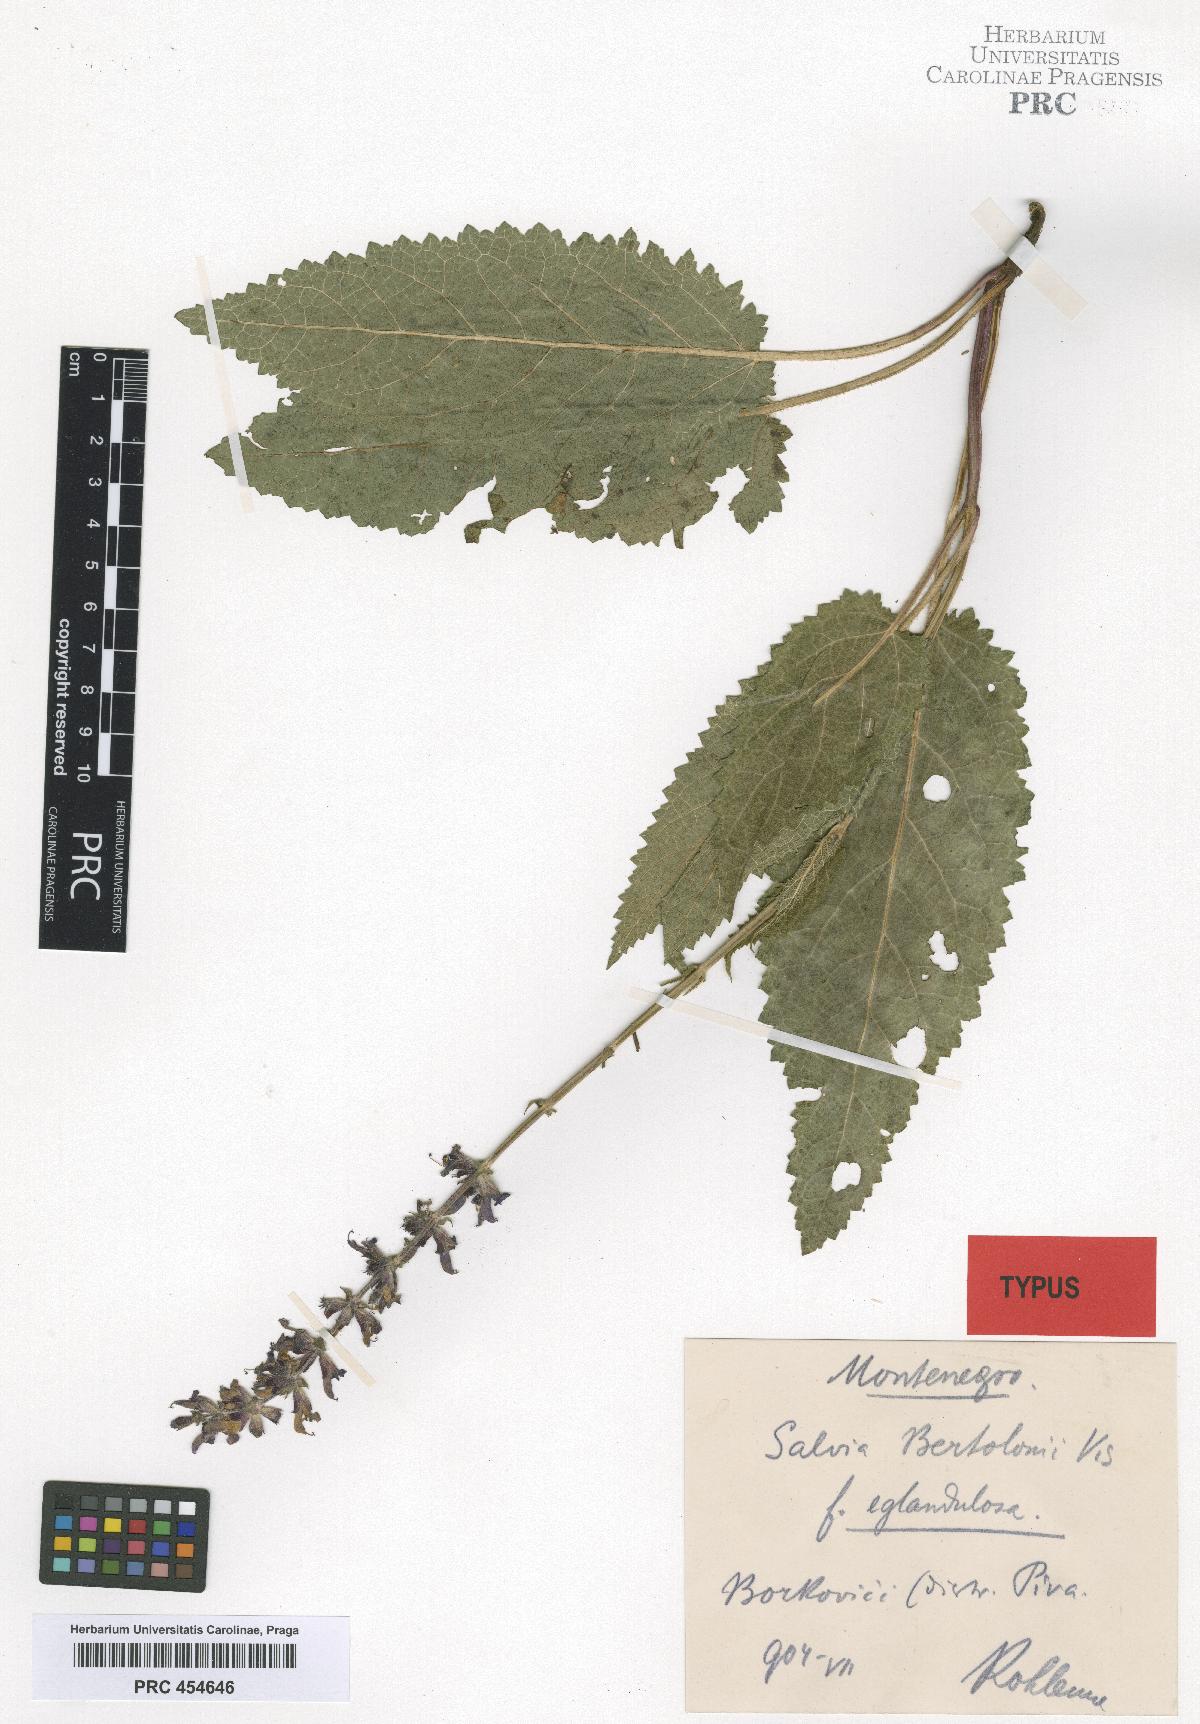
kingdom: Plantae
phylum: Tracheophyta
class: Magnoliopsida
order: Lamiales
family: Lamiaceae
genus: Salvia
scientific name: Salvia pratensis
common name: Meadow sage
